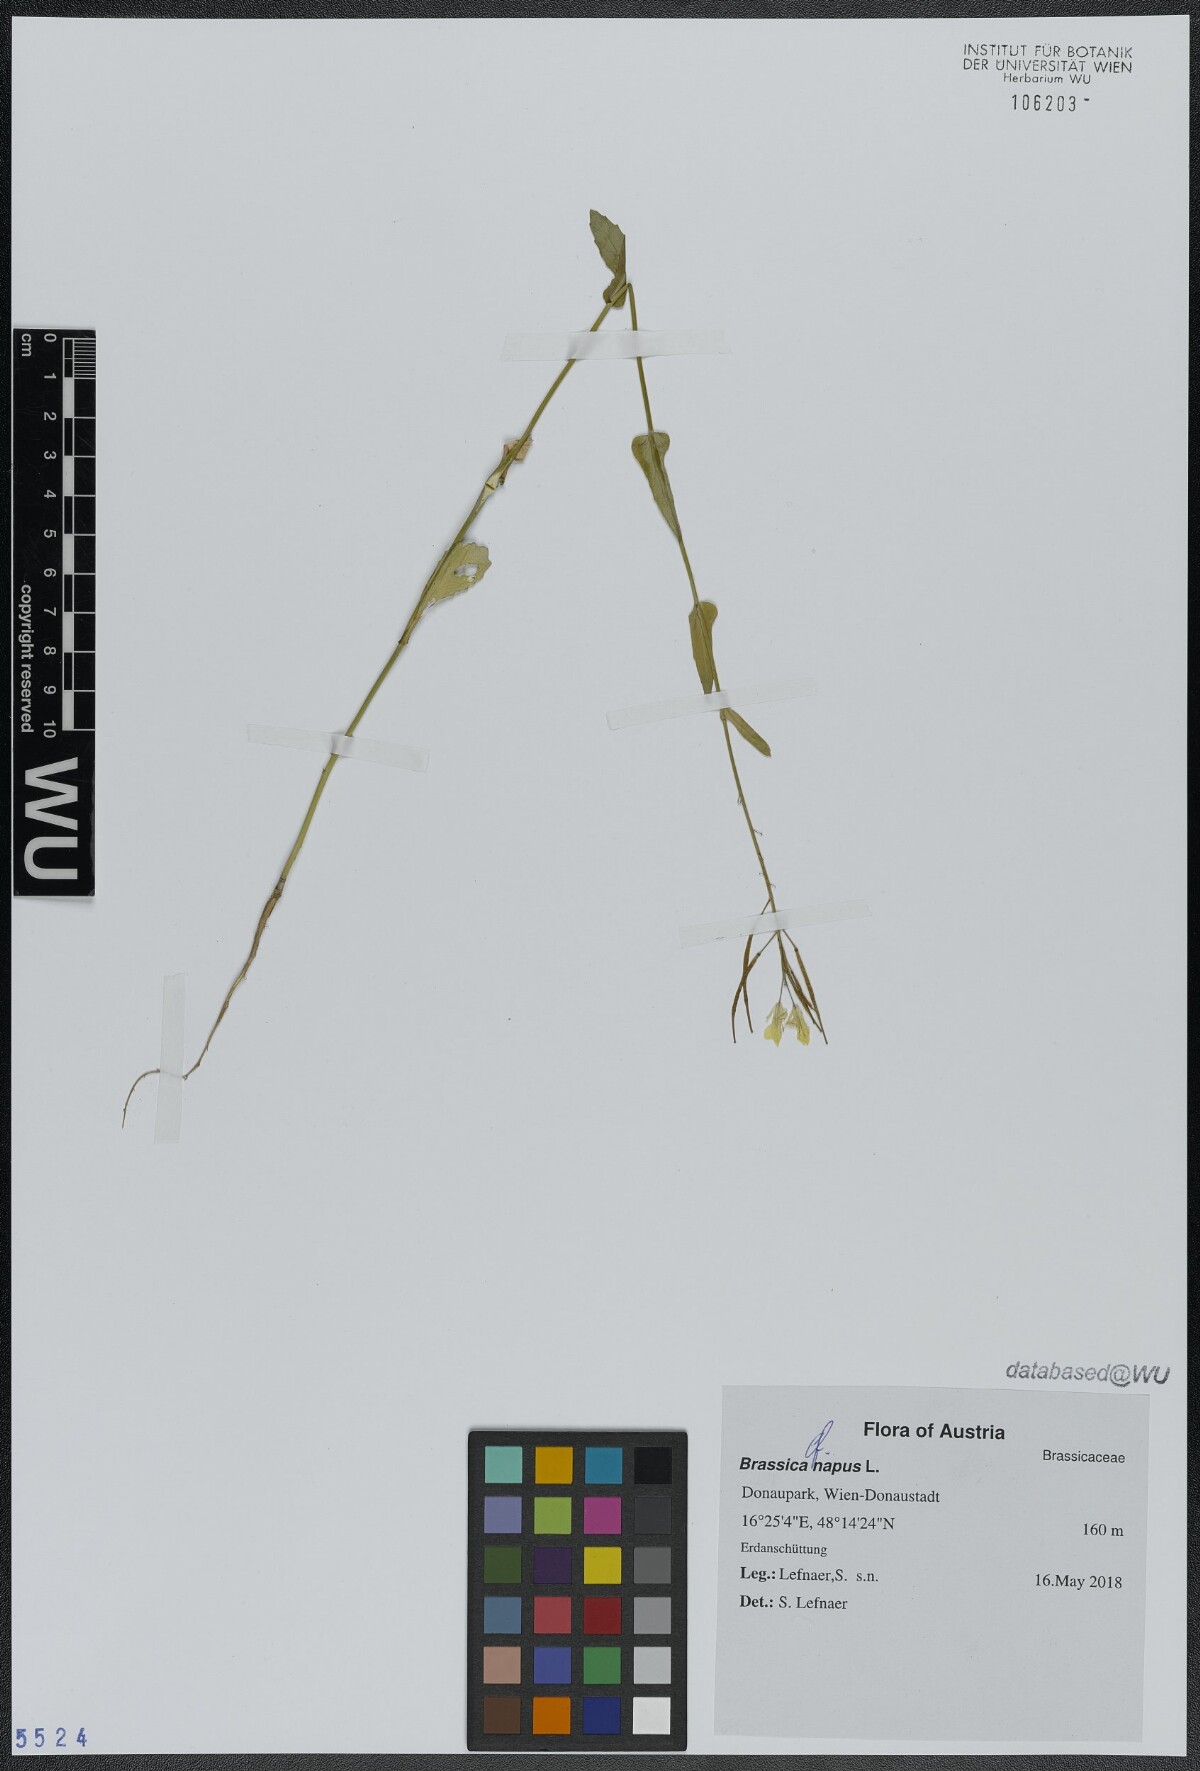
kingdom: Plantae
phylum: Tracheophyta
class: Magnoliopsida
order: Brassicales
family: Brassicaceae
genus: Brassica
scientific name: Brassica napus
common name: Rape
